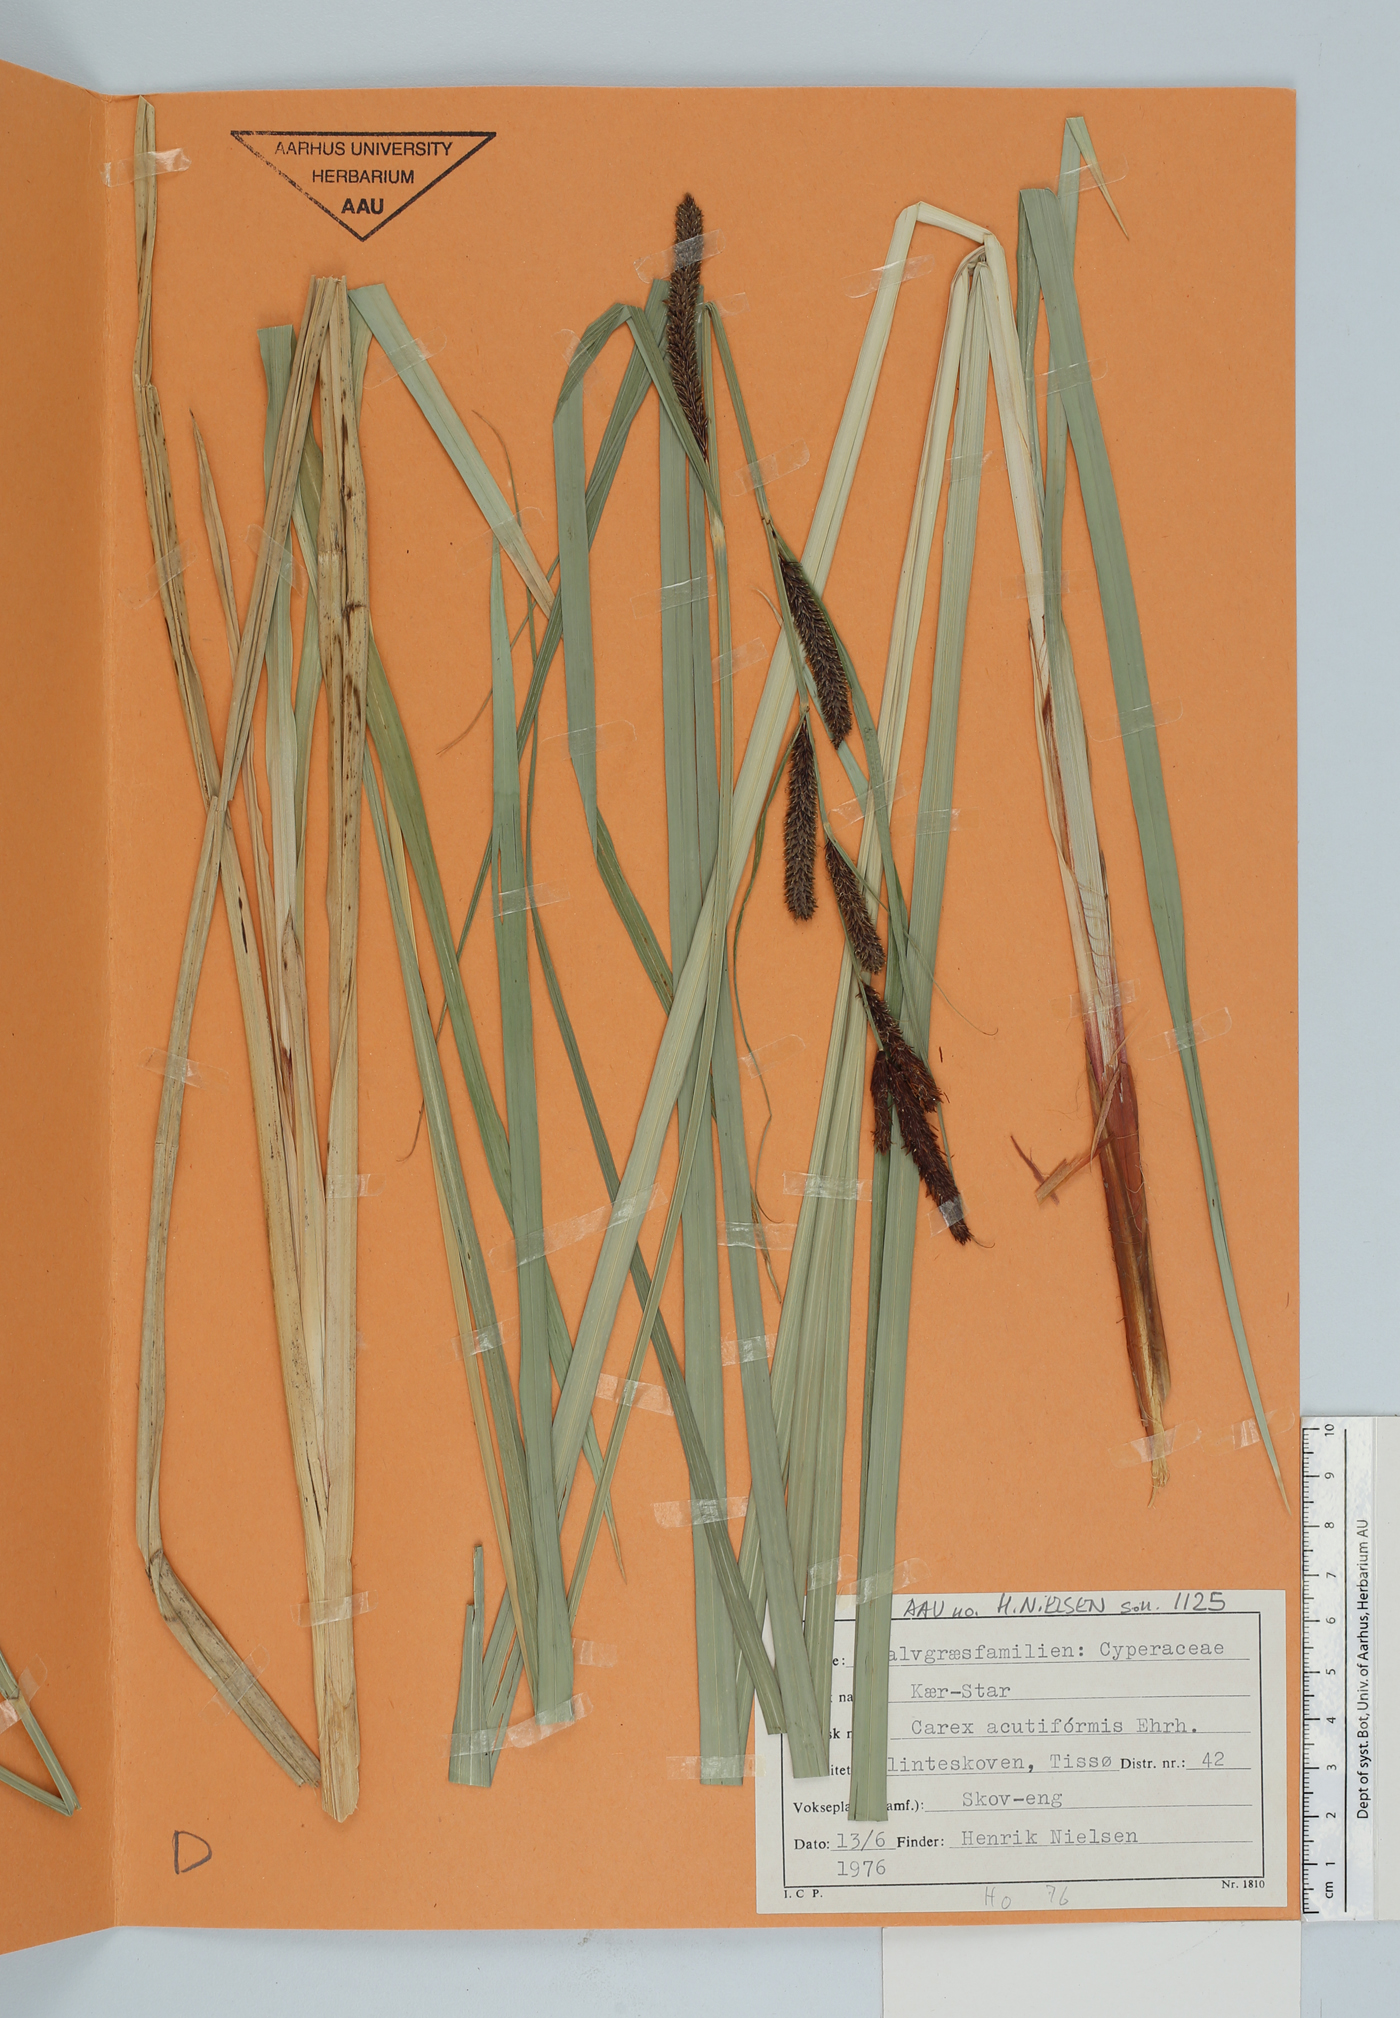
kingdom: Plantae
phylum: Tracheophyta
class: Liliopsida
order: Poales
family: Cyperaceae
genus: Carex
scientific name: Carex acutiformis
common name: Lesser pond-sedge
